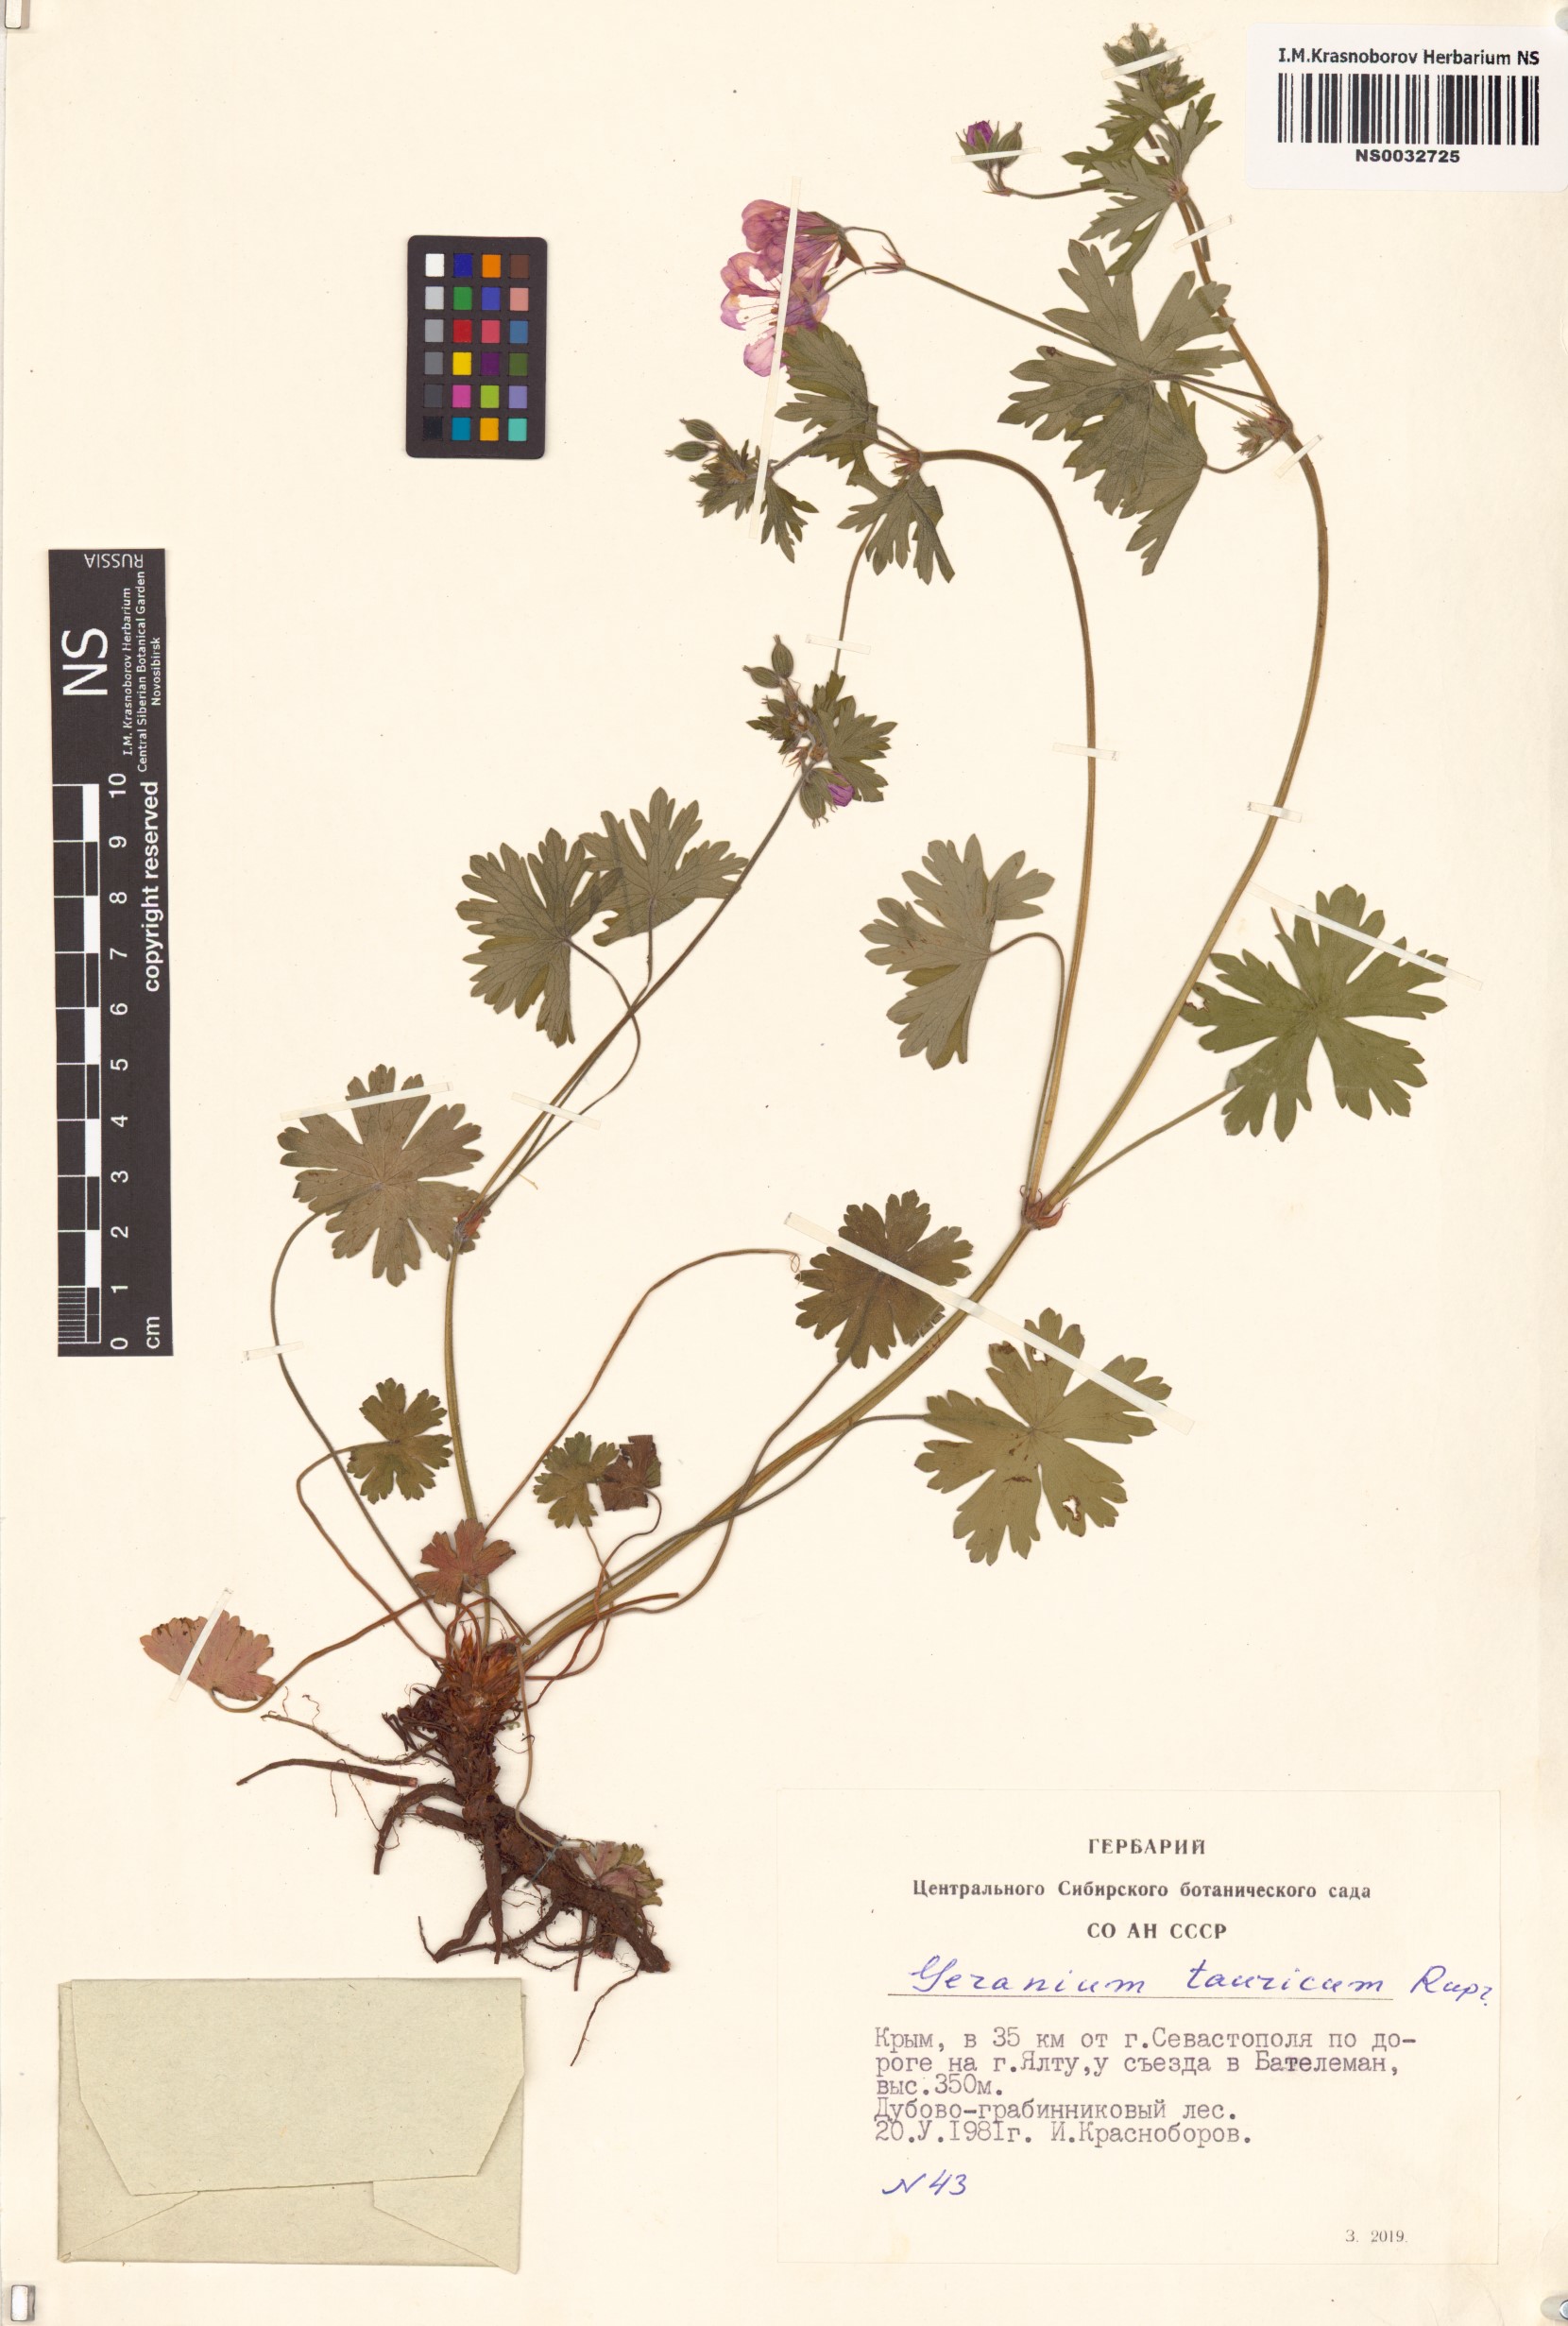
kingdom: Plantae
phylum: Tracheophyta
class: Magnoliopsida
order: Geraniales
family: Geraniaceae
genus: Geranium
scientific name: Geranium asphodeloides
